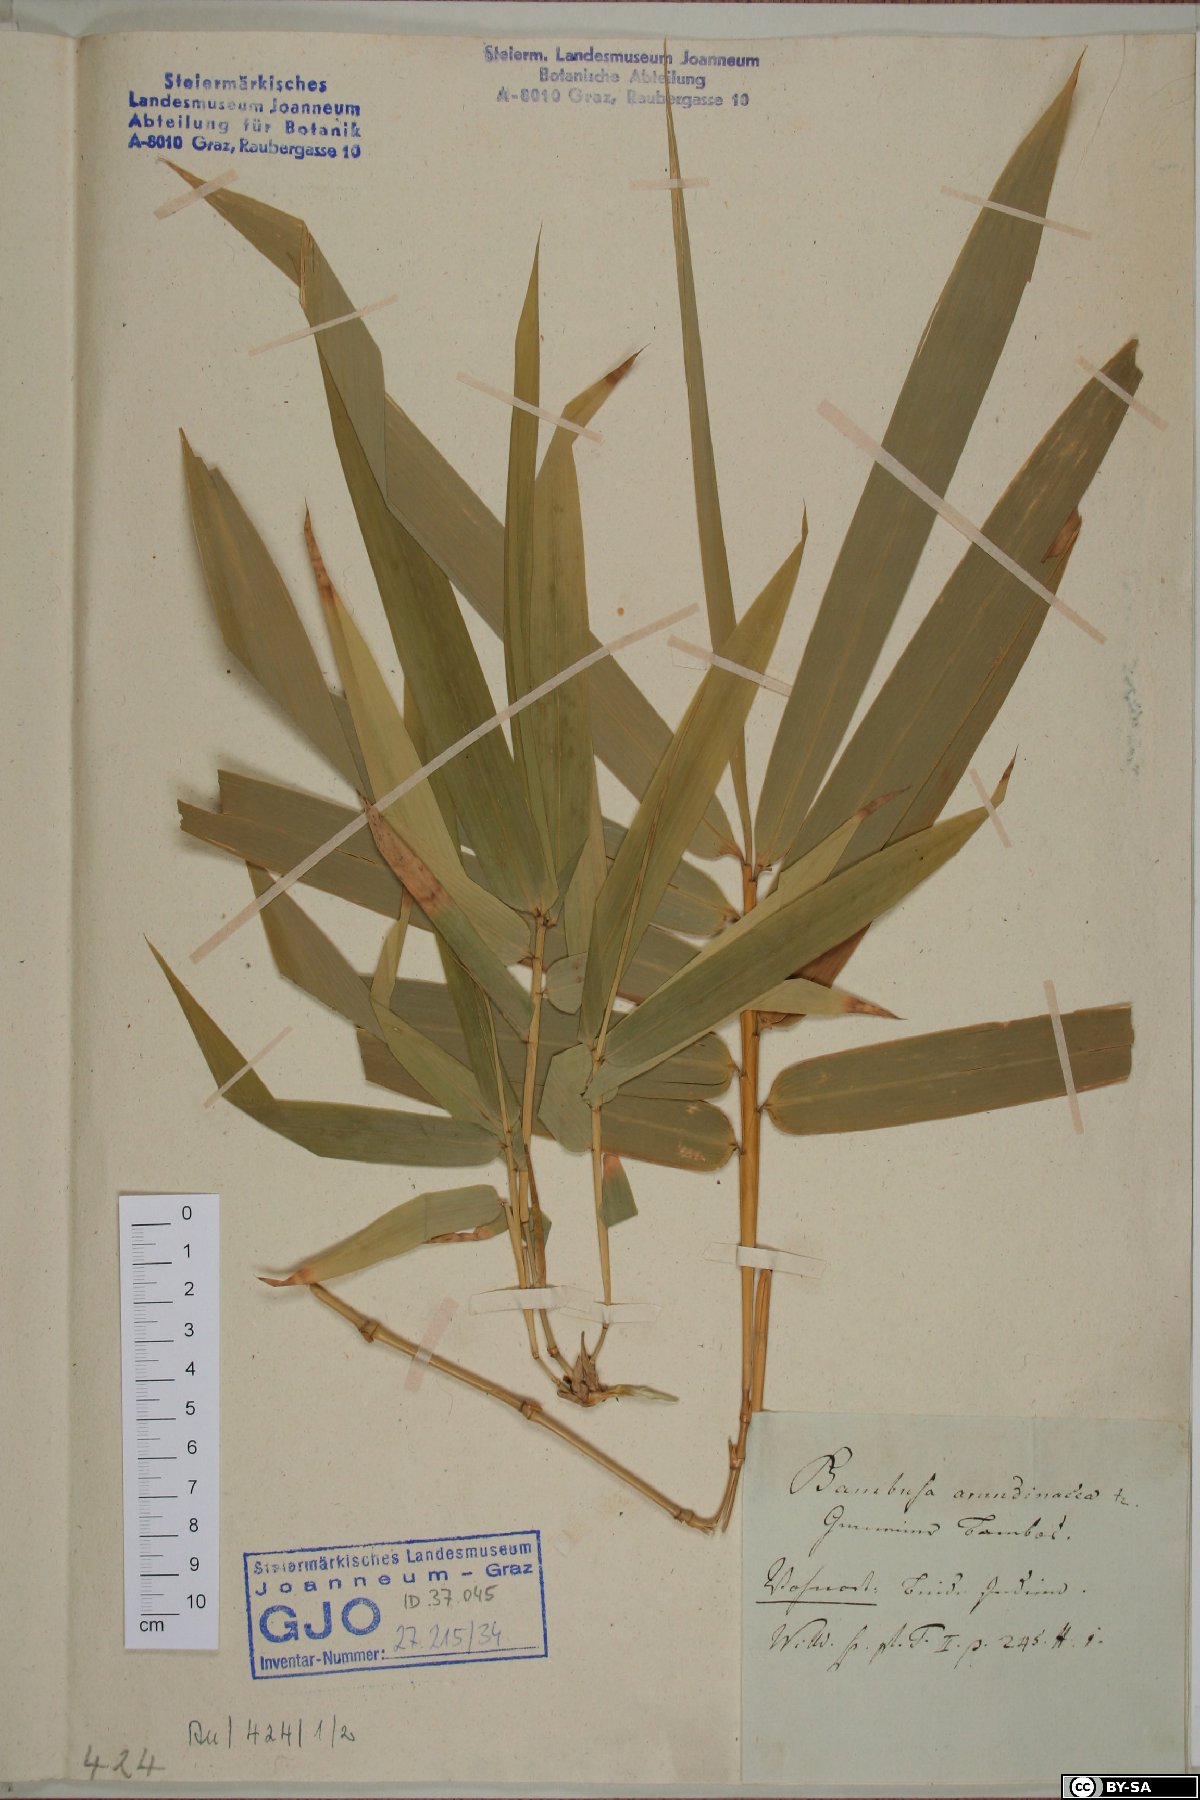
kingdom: Plantae
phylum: Tracheophyta
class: Liliopsida
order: Poales
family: Poaceae
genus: Bambusa
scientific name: Bambusa bambos
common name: Indian thorny bamboo
